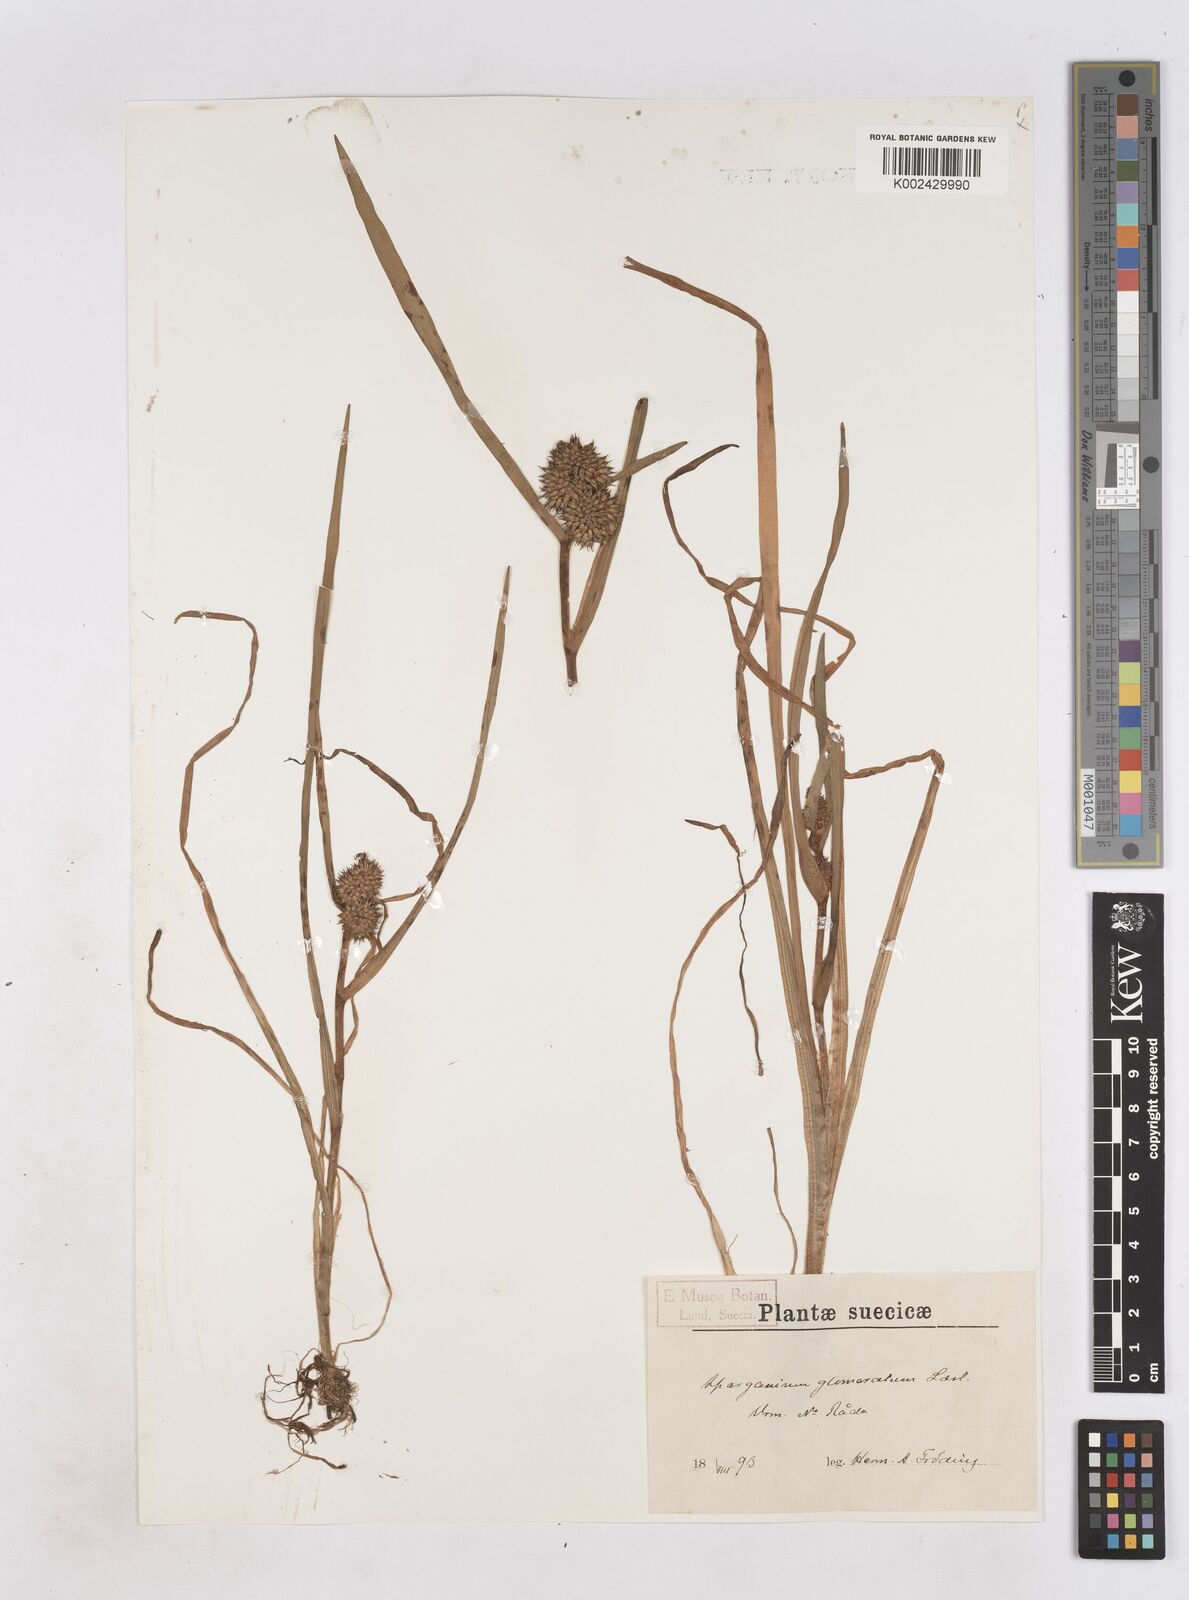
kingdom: Plantae
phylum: Tracheophyta
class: Liliopsida
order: Poales
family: Typhaceae
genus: Sparganium
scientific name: Sparganium angustifolium
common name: Floating bur-reed
